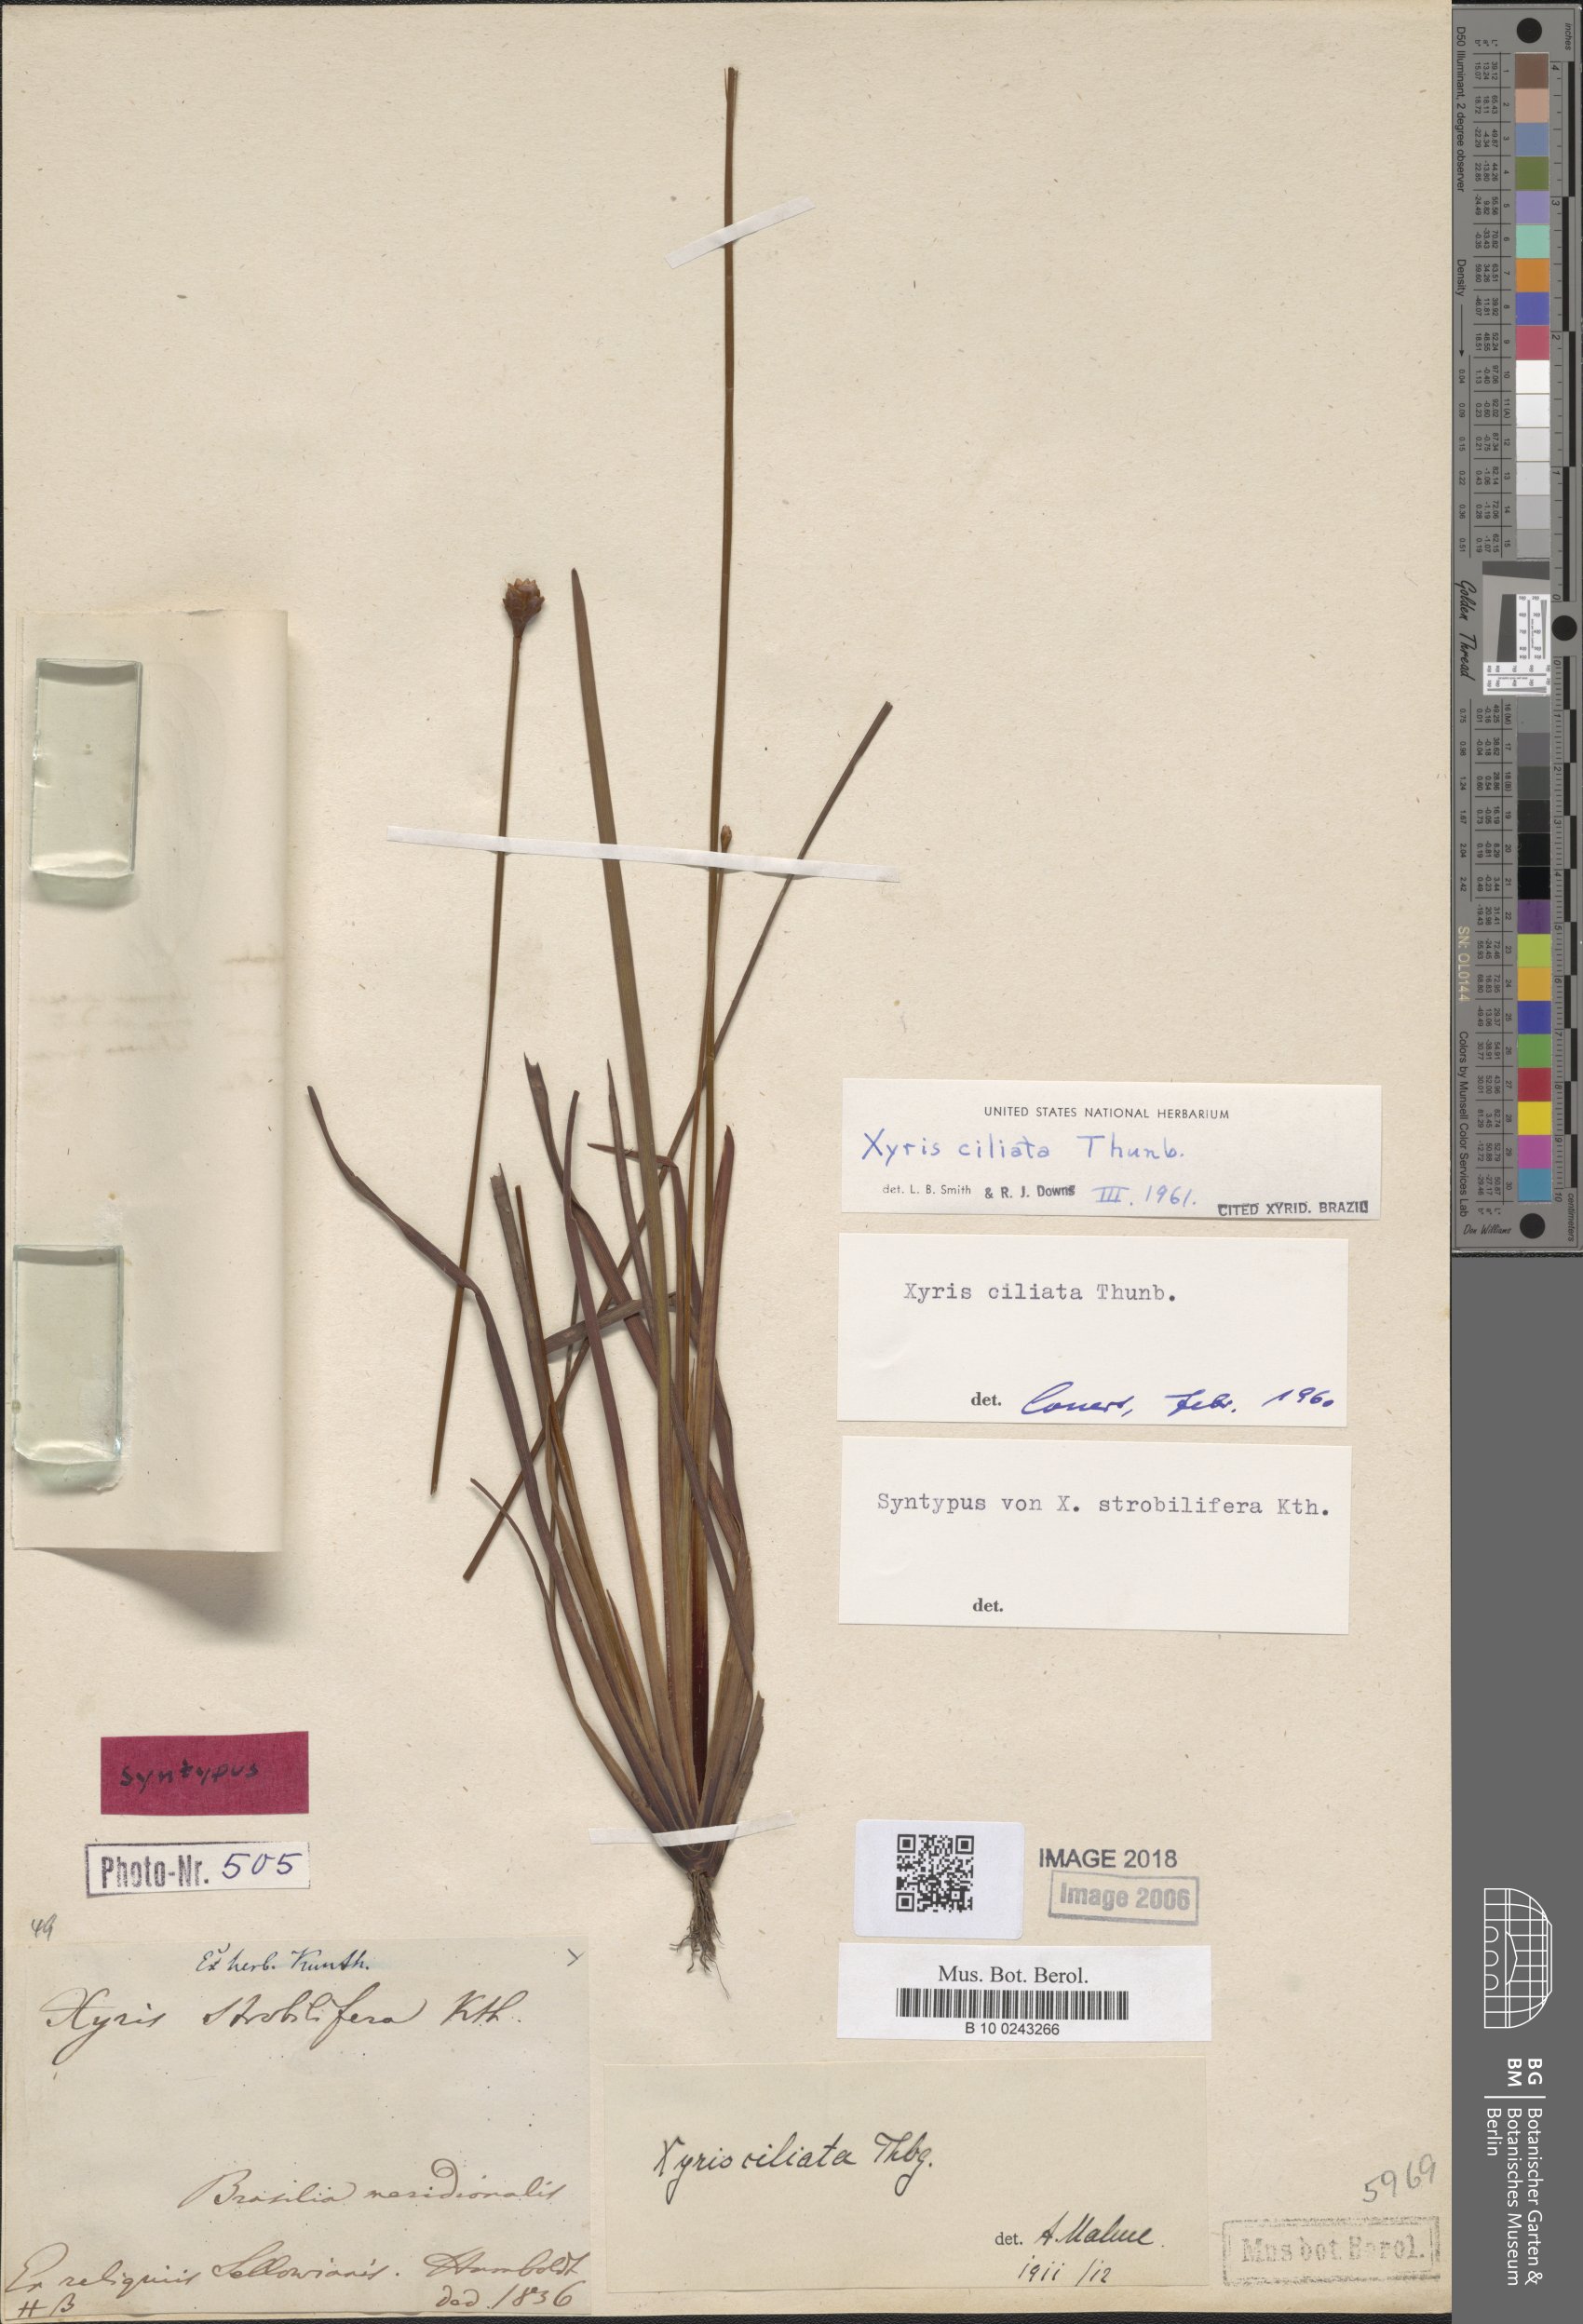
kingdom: Plantae
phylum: Tracheophyta
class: Liliopsida
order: Poales
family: Xyridaceae
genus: Xyris
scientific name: Xyris ciliata
